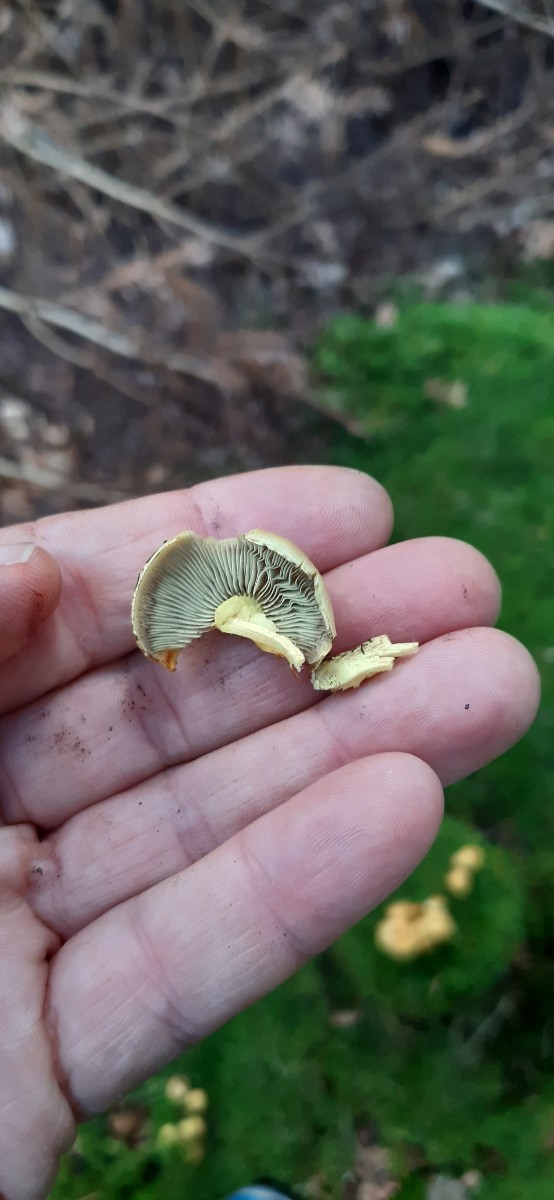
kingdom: Fungi
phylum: Basidiomycota
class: Agaricomycetes
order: Agaricales
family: Strophariaceae
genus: Hypholoma
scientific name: Hypholoma fasciculare
